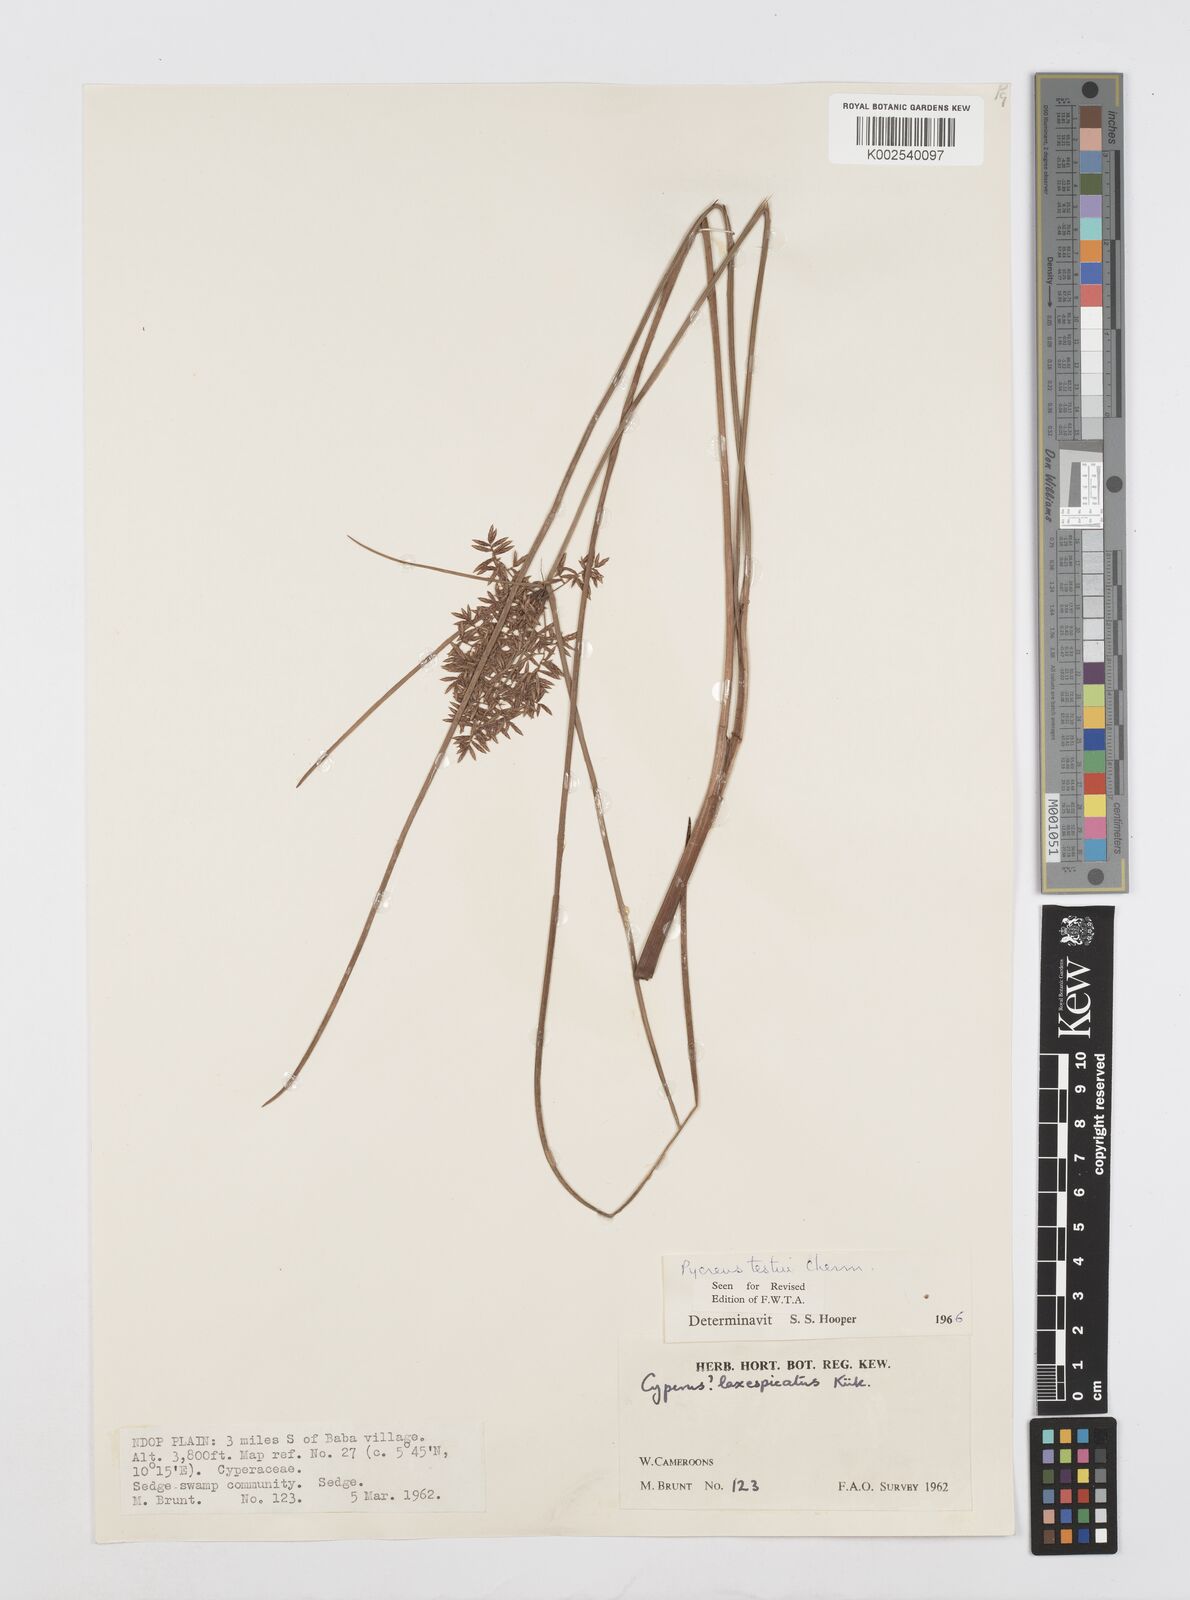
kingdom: Plantae
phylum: Tracheophyta
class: Liliopsida
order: Poales
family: Cyperaceae
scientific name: Cyperaceae
